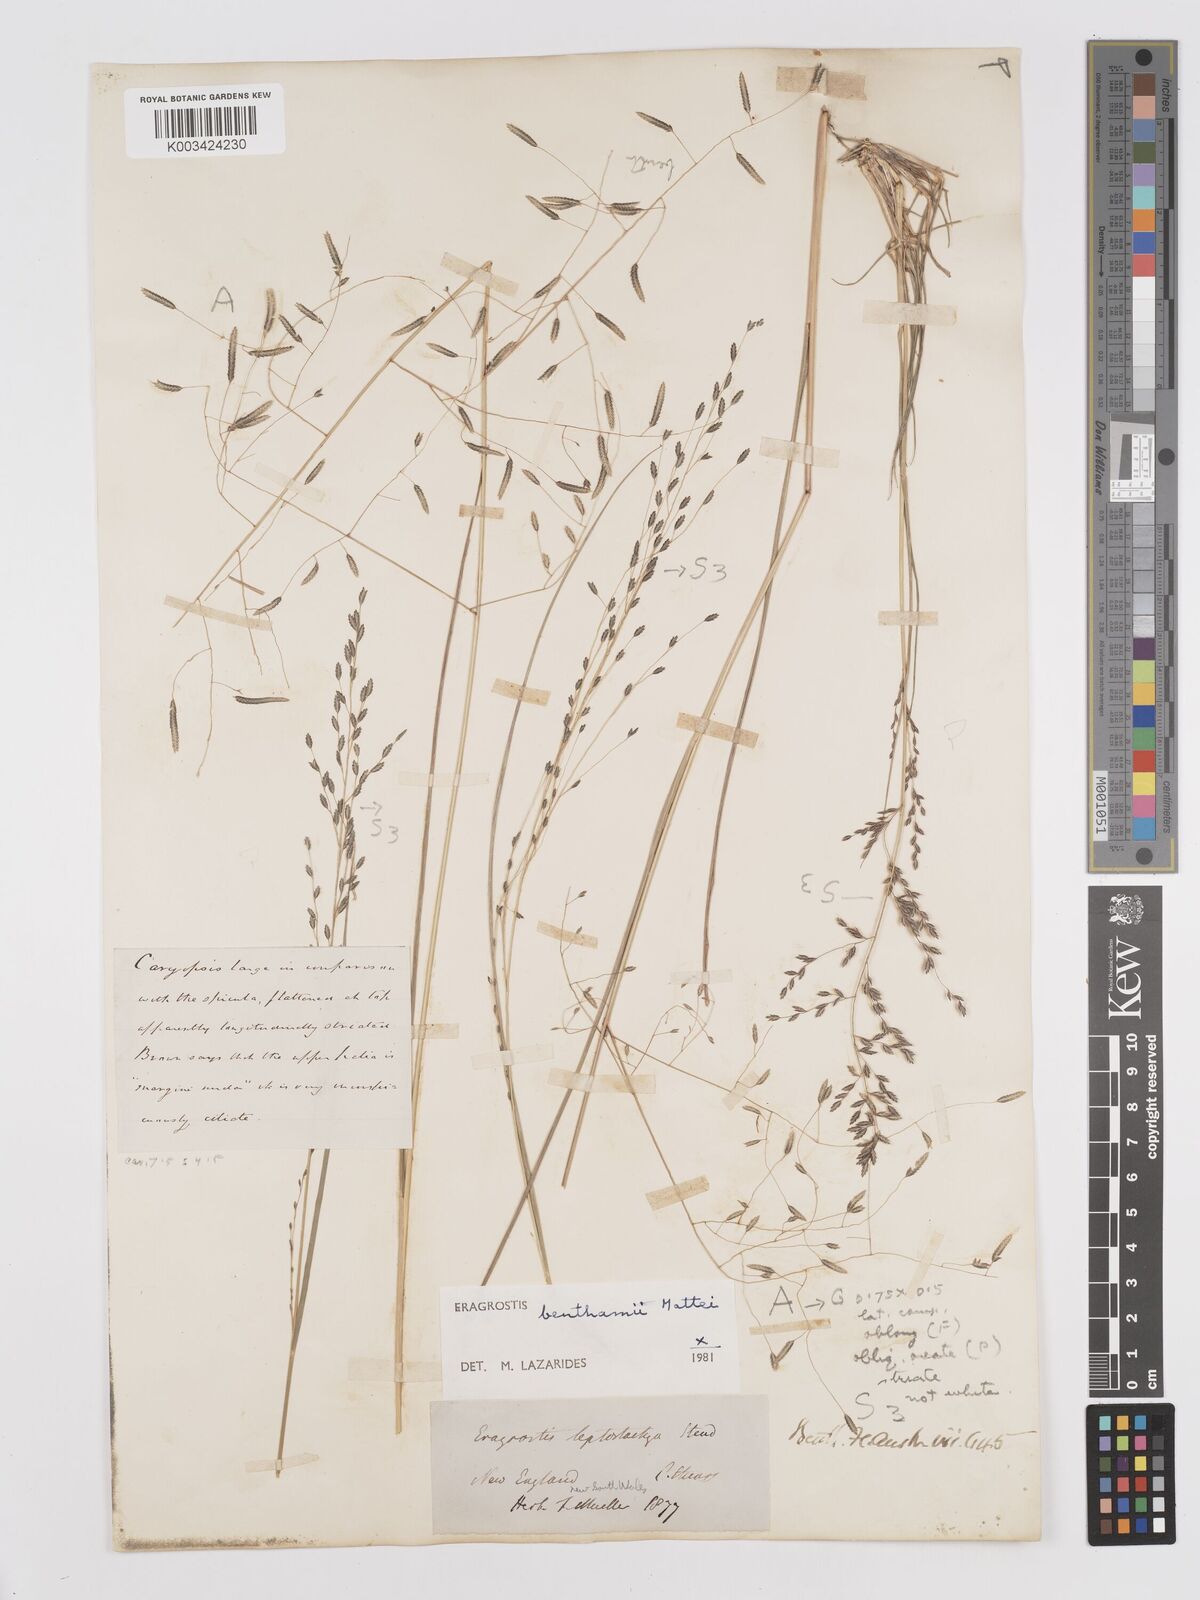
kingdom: Plantae
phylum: Tracheophyta
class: Liliopsida
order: Poales
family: Poaceae
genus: Eragrostis
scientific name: Eragrostis brownii
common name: Lovegrass
